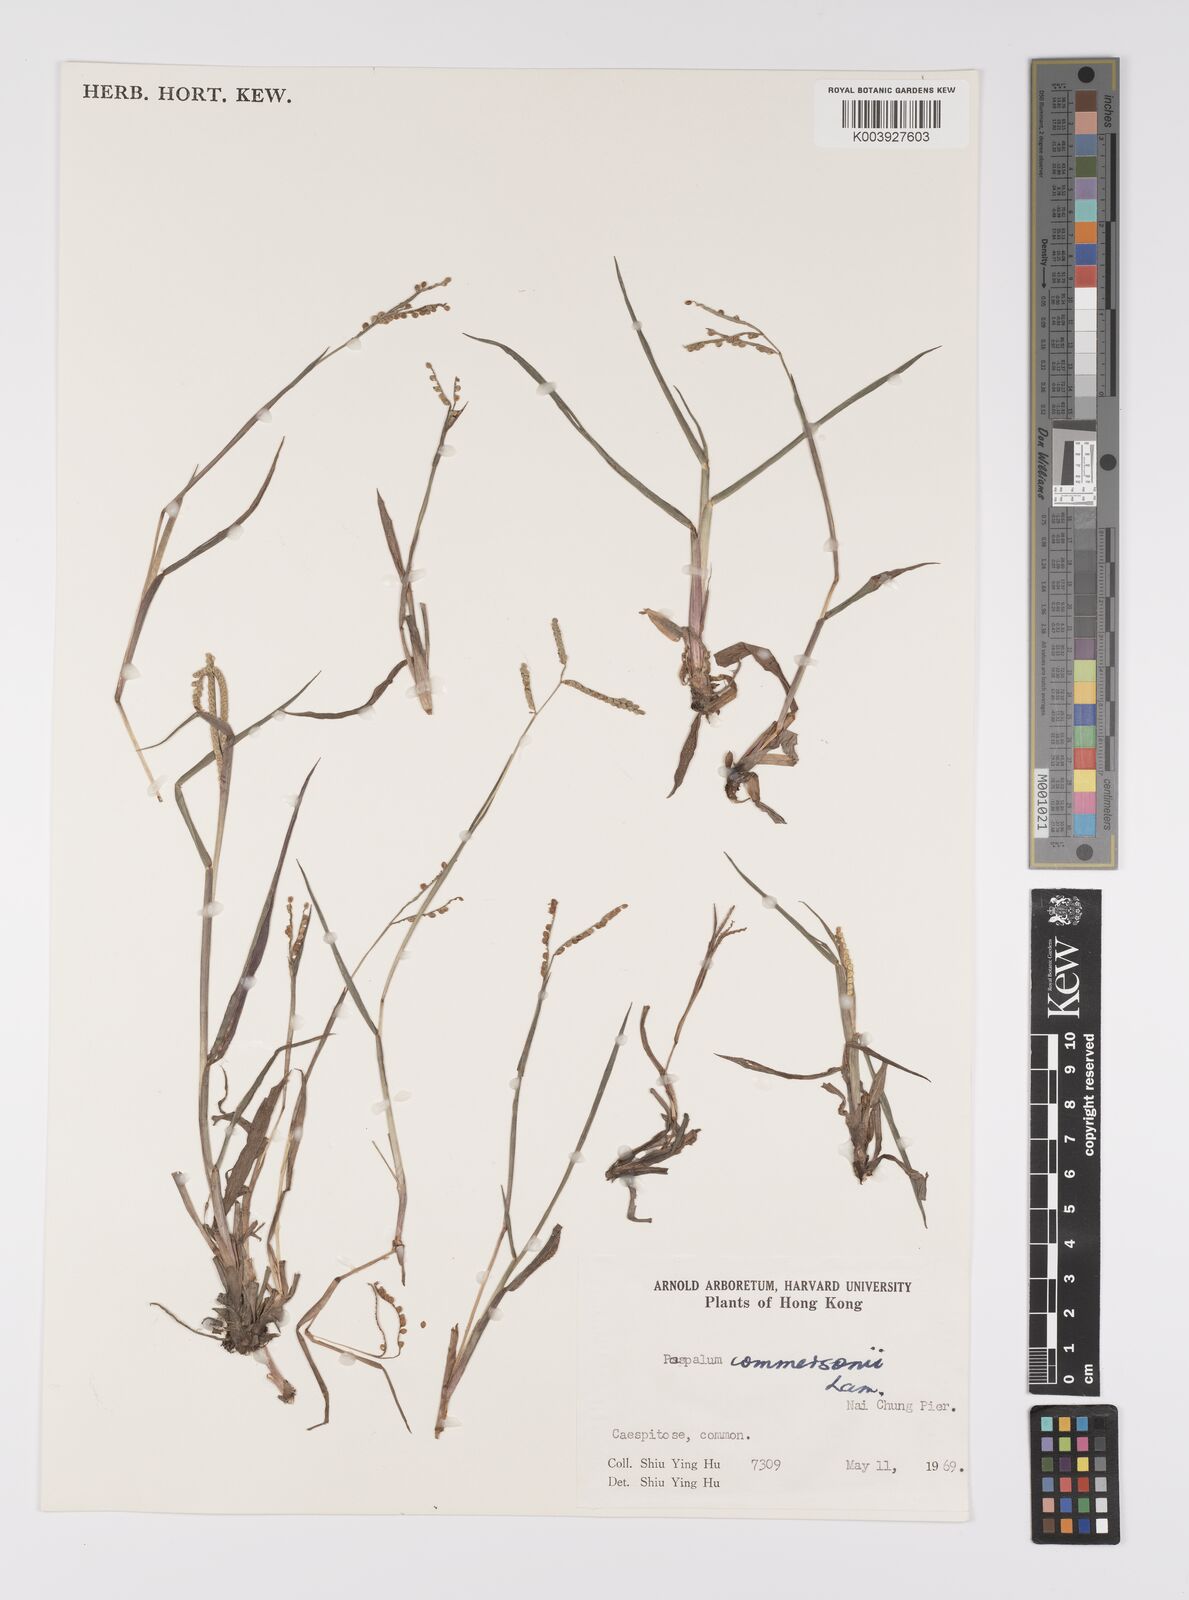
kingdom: Plantae
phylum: Tracheophyta
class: Liliopsida
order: Poales
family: Poaceae
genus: Paspalum
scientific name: Paspalum scrobiculatum
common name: Kodo millet
